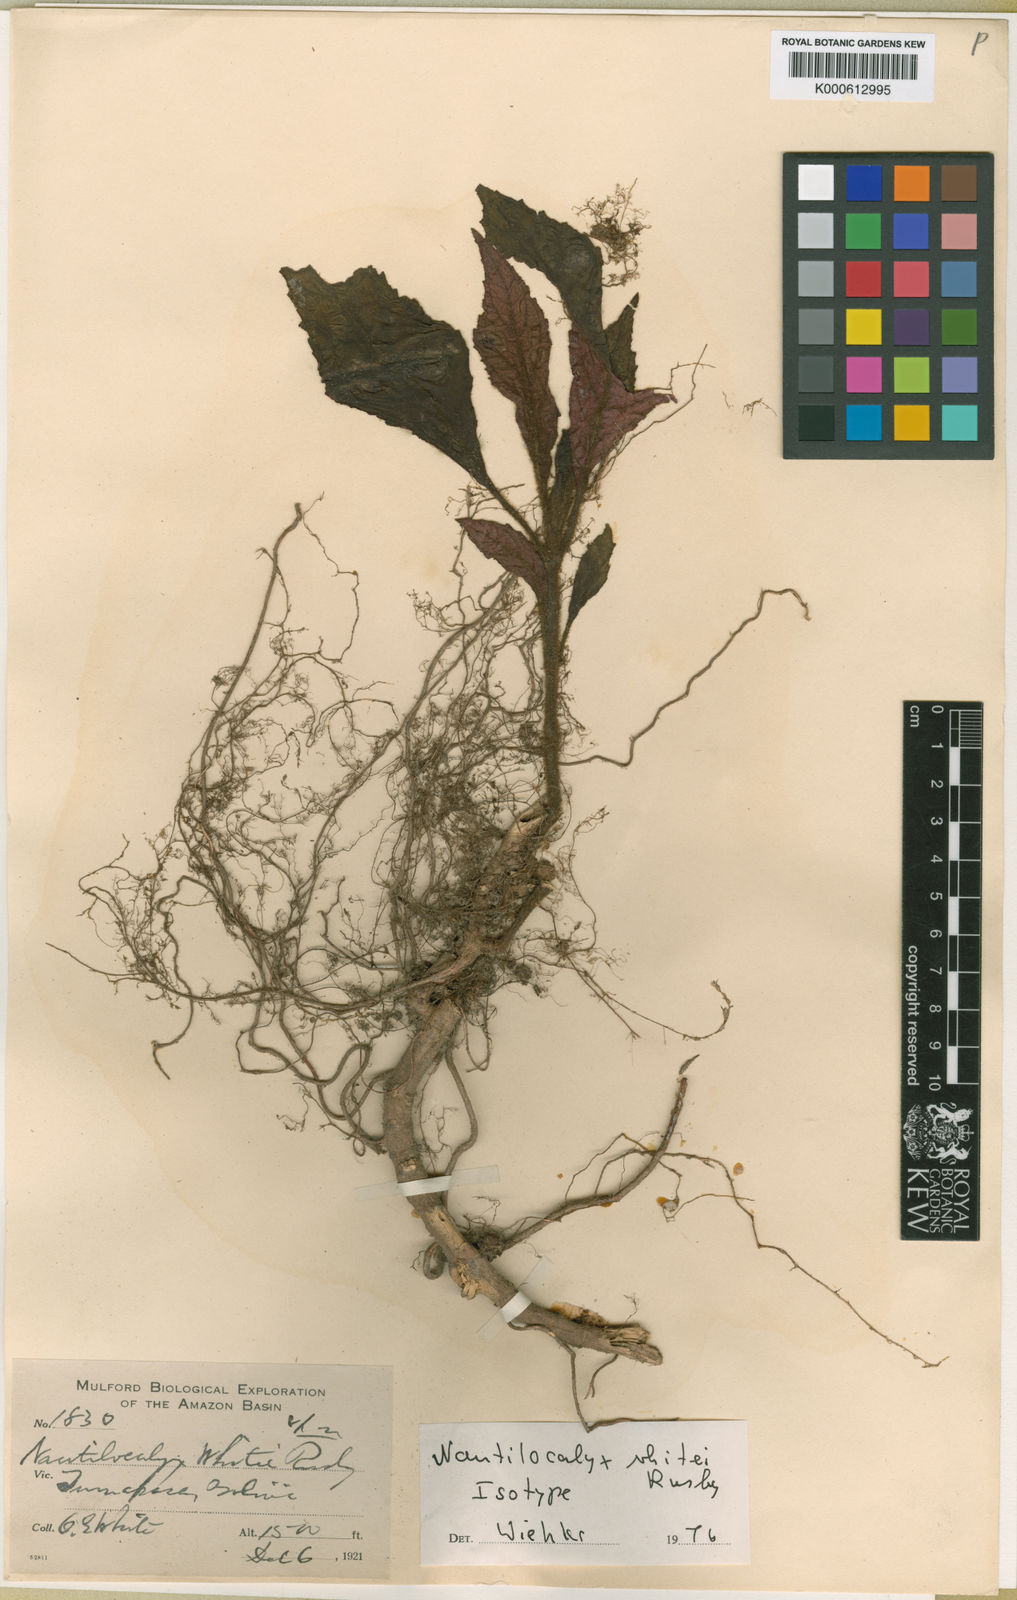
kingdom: Plantae
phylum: Tracheophyta
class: Magnoliopsida
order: Lamiales
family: Gesneriaceae
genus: Nautilocalyx
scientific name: Nautilocalyx whitei
